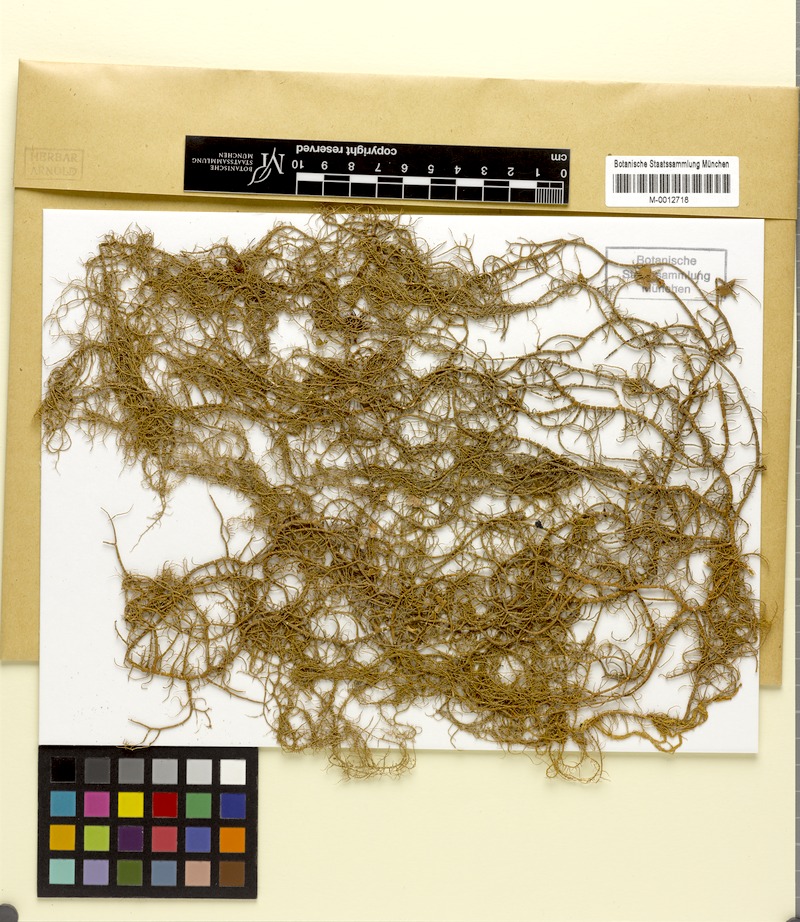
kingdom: Fungi
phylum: Ascomycota
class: Lecanoromycetes
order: Lecanorales
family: Parmeliaceae
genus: Usnea
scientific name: Usnea ceratina
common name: Warty beard lichen
